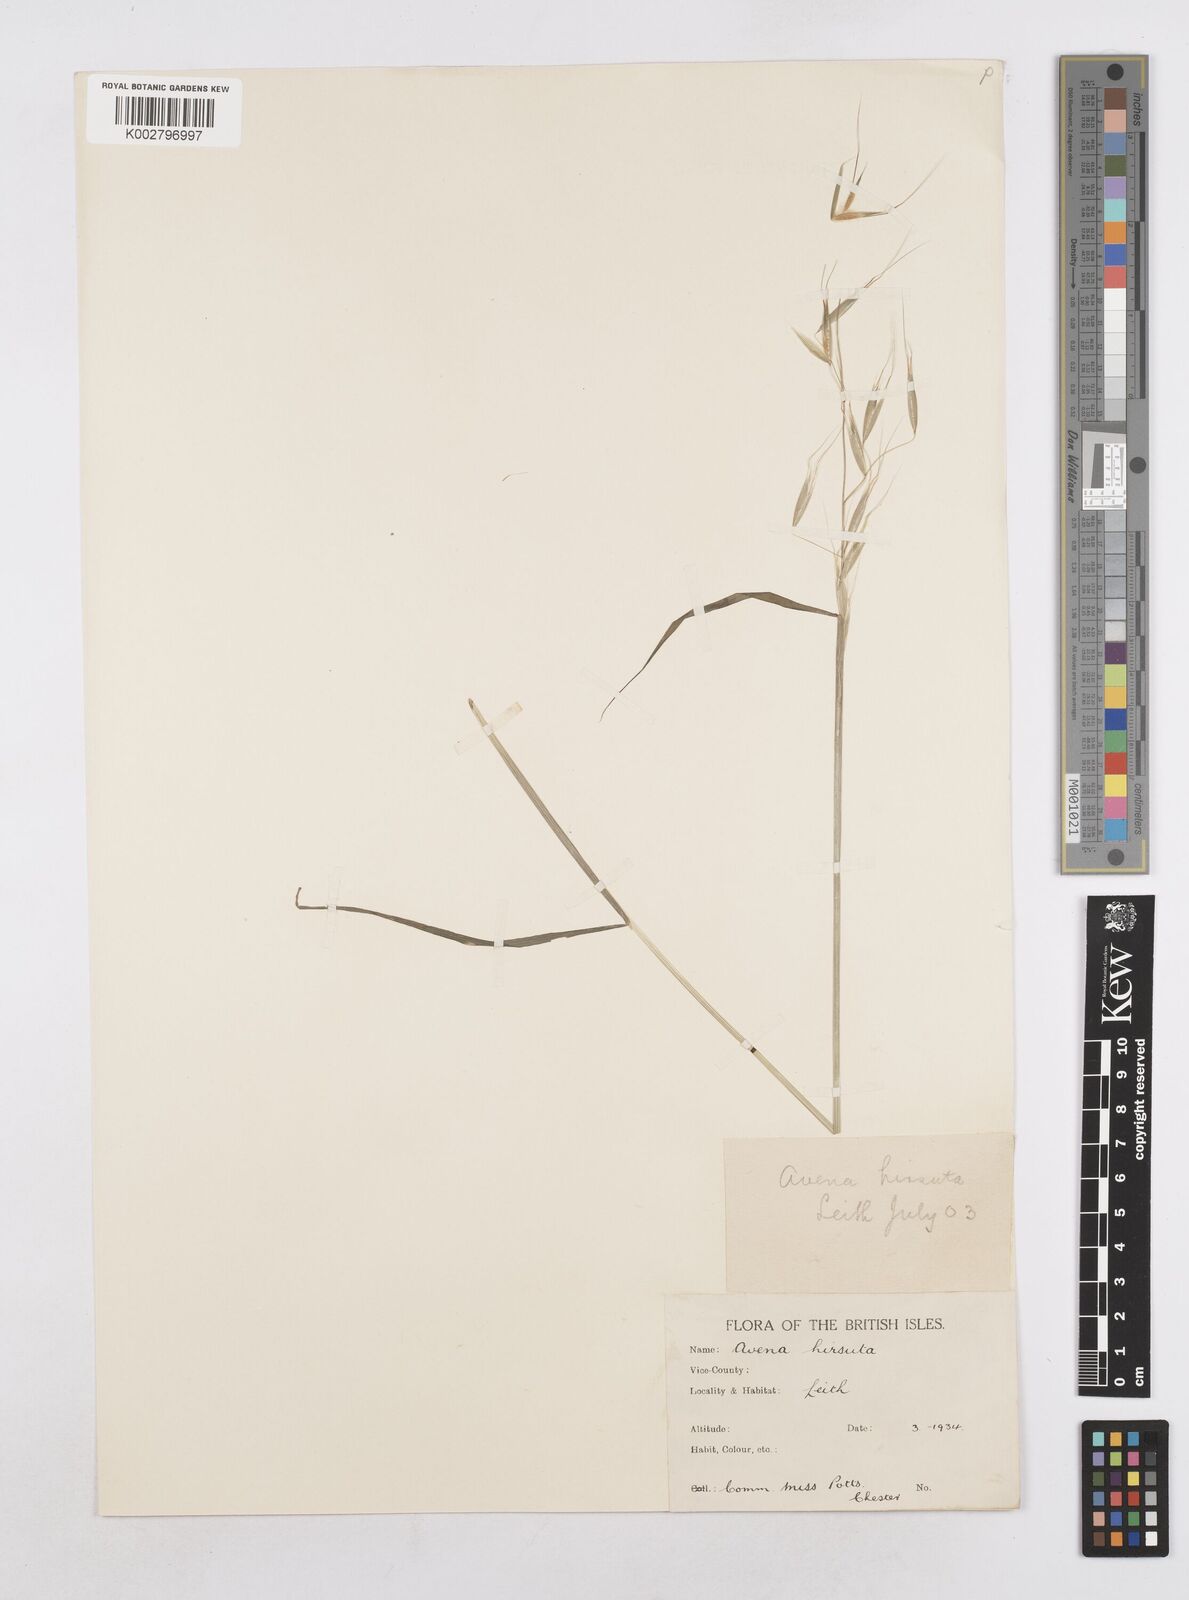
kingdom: Plantae
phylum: Tracheophyta
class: Liliopsida
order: Poales
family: Poaceae
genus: Avena
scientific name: Avena strigosa
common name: Bristle oat
